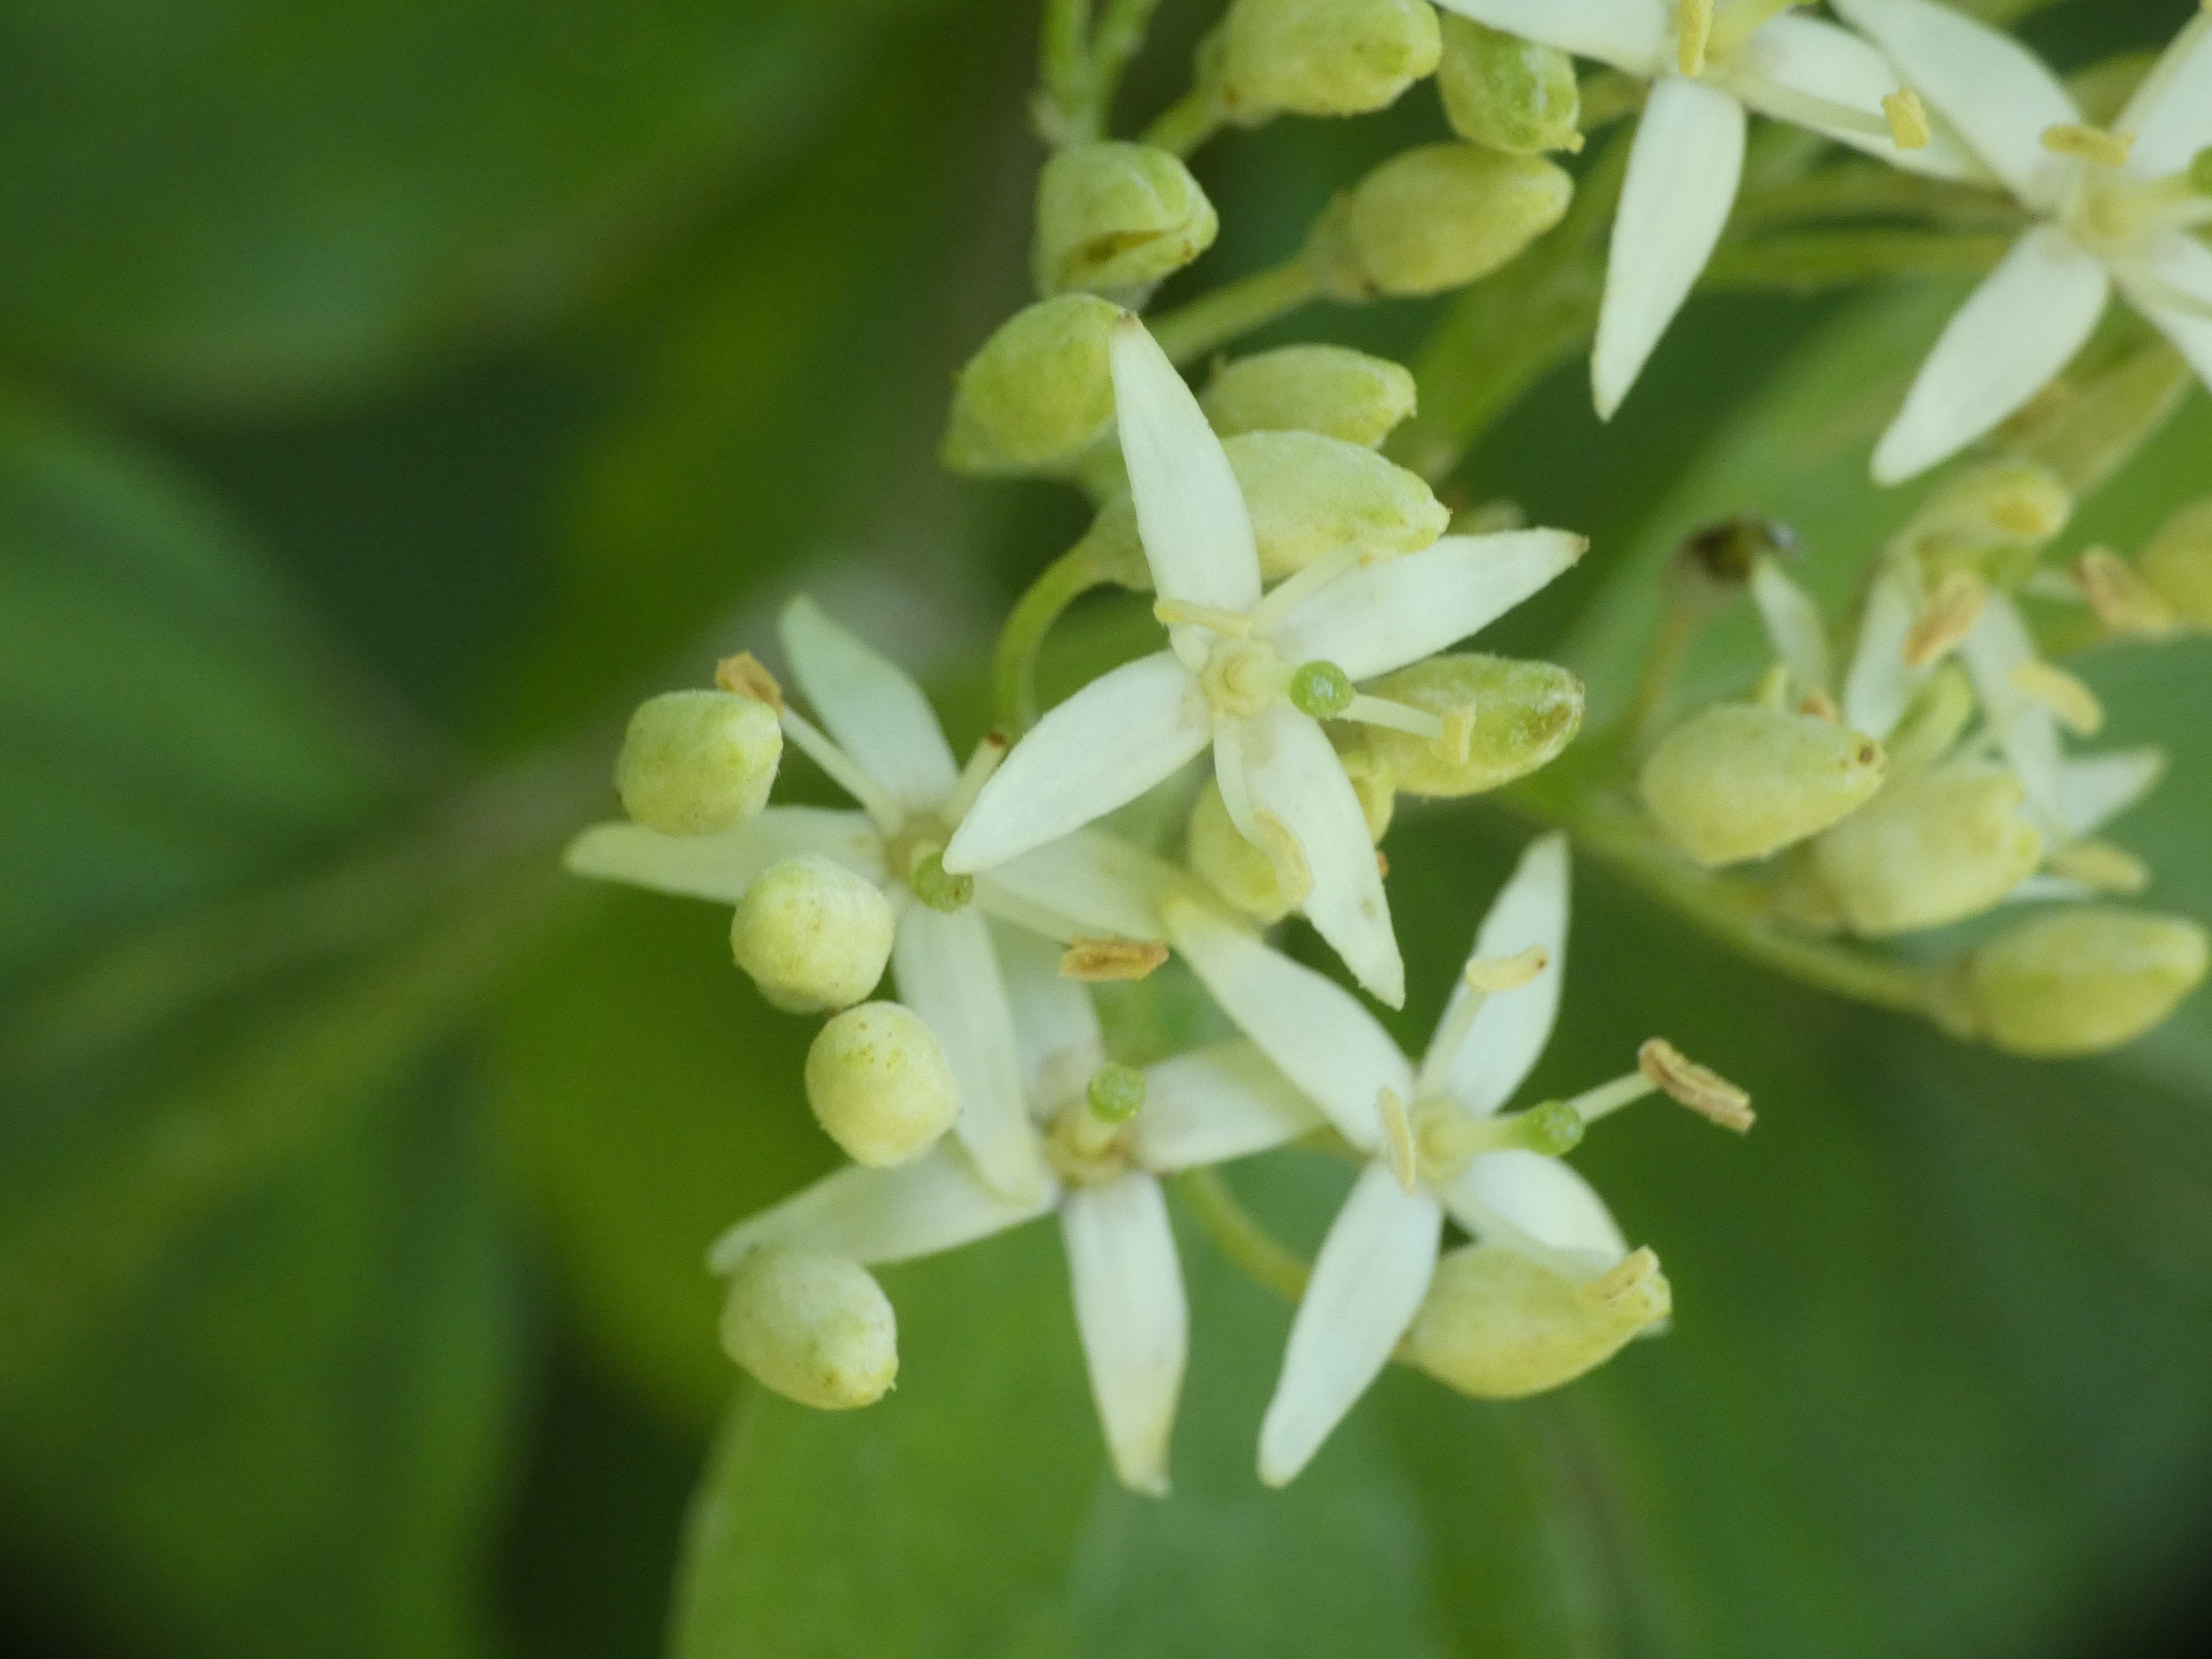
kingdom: Plantae
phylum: Tracheophyta
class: Magnoliopsida
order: Cornales
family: Cornaceae
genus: Cornus
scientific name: Cornus sanguinea
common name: Rød kornel
